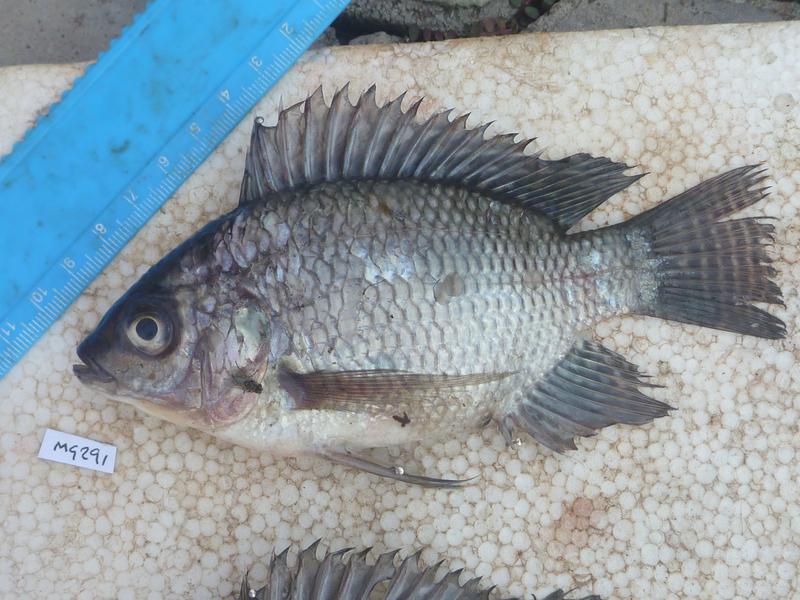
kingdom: Animalia
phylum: Chordata
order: Perciformes
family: Cichlidae
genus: Oreochromis
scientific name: Oreochromis niloticus
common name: Nile tilapia
